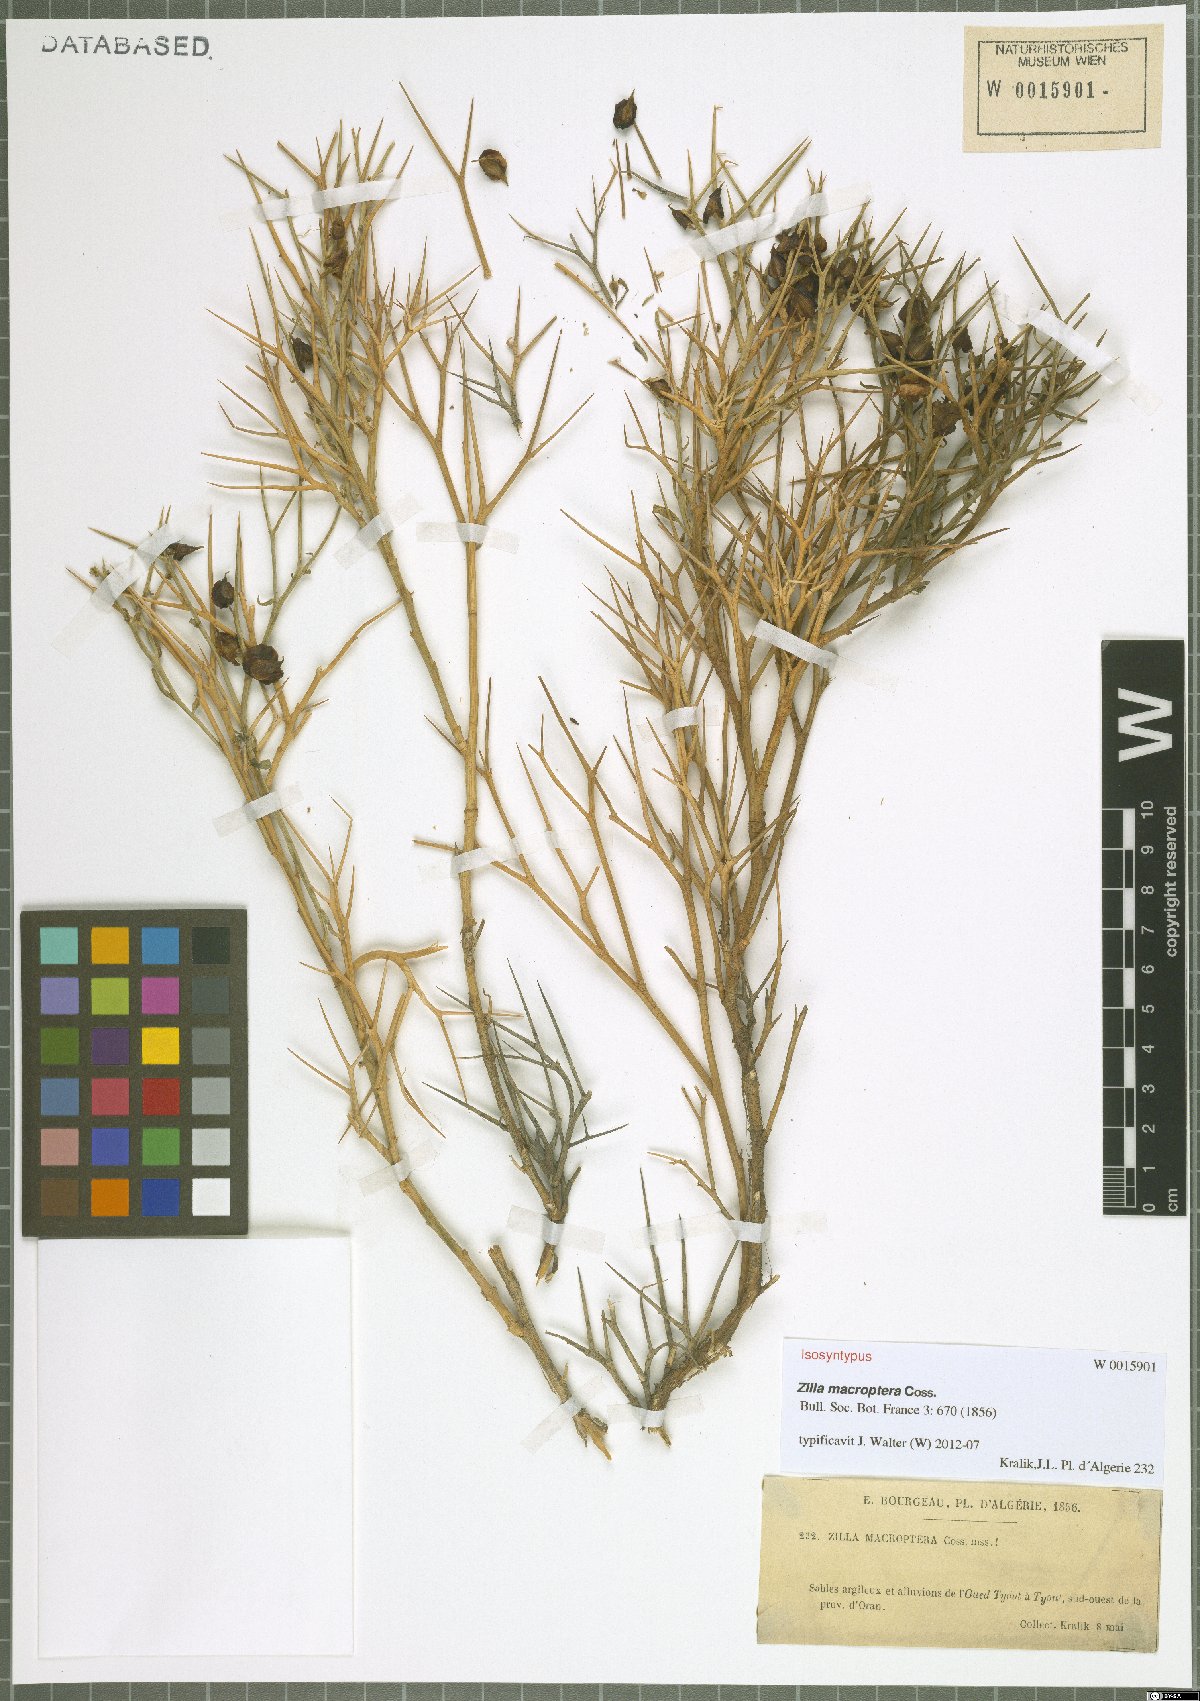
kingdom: Plantae
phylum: Tracheophyta
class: Magnoliopsida
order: Brassicales
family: Brassicaceae
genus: Zilla
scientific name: Zilla macroptera
